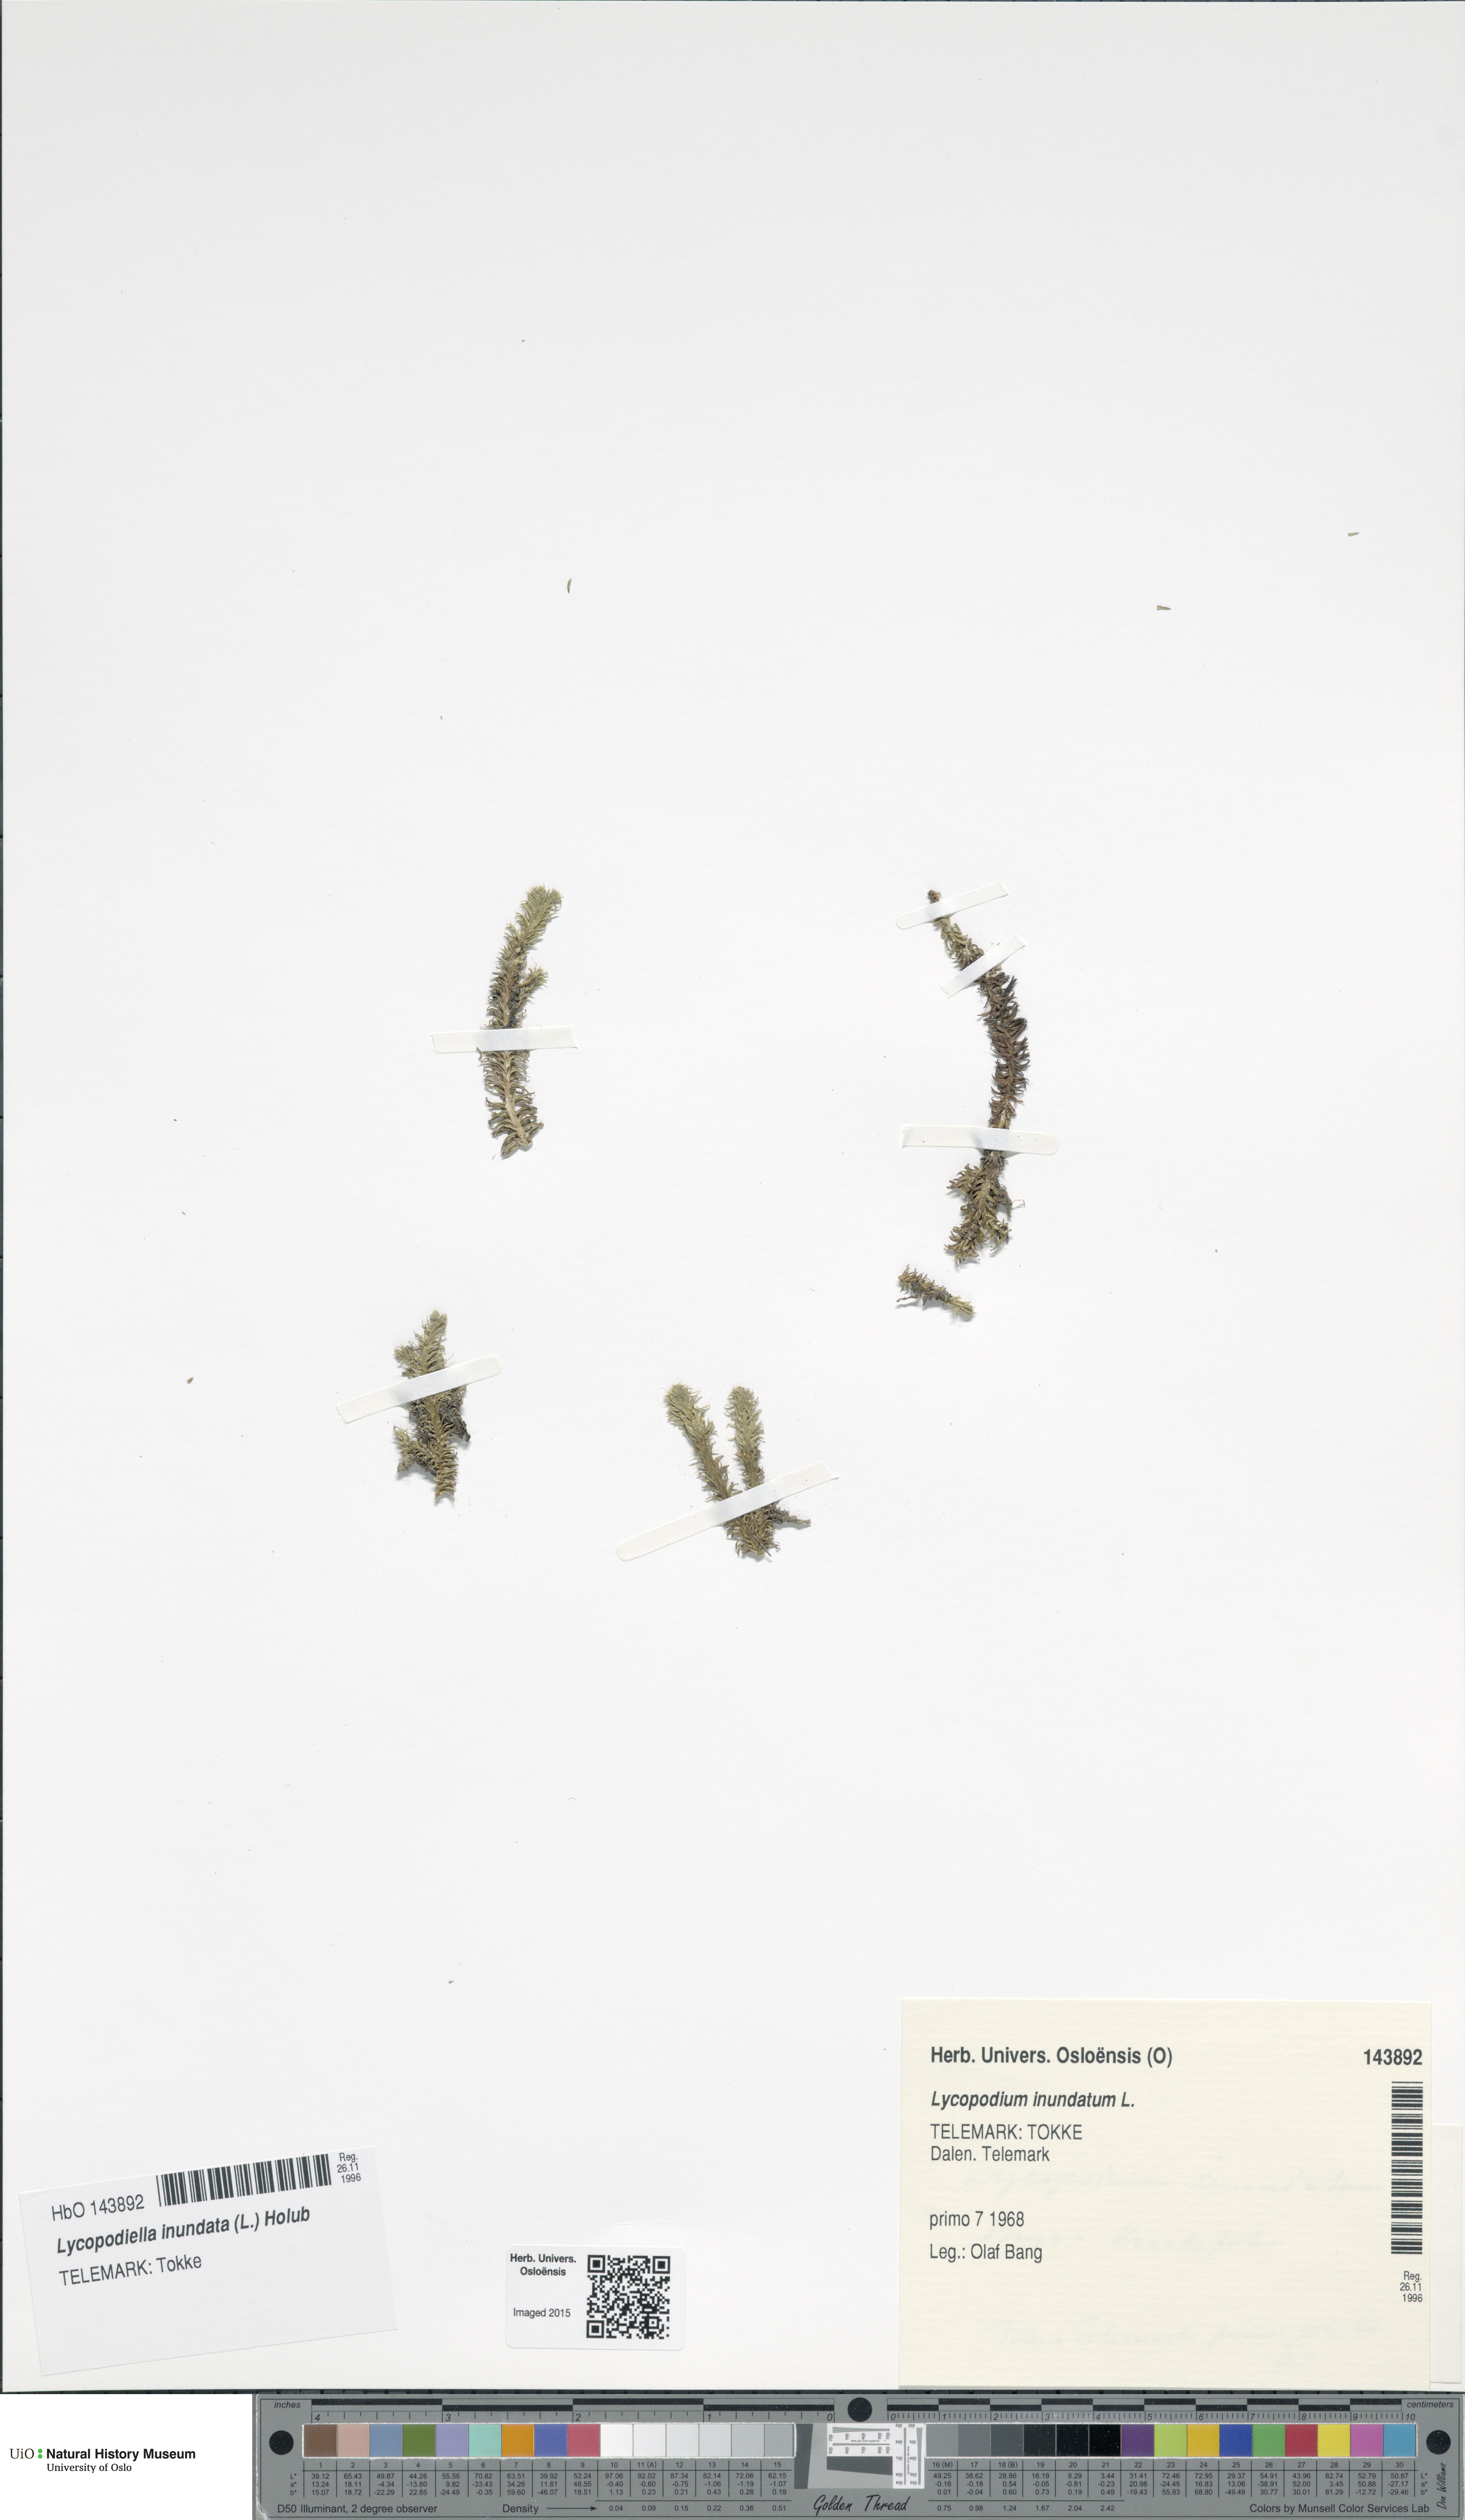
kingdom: Plantae
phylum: Tracheophyta
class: Lycopodiopsida
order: Lycopodiales
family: Lycopodiaceae
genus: Lycopodiella
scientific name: Lycopodiella inundata
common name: Marsh clubmoss
